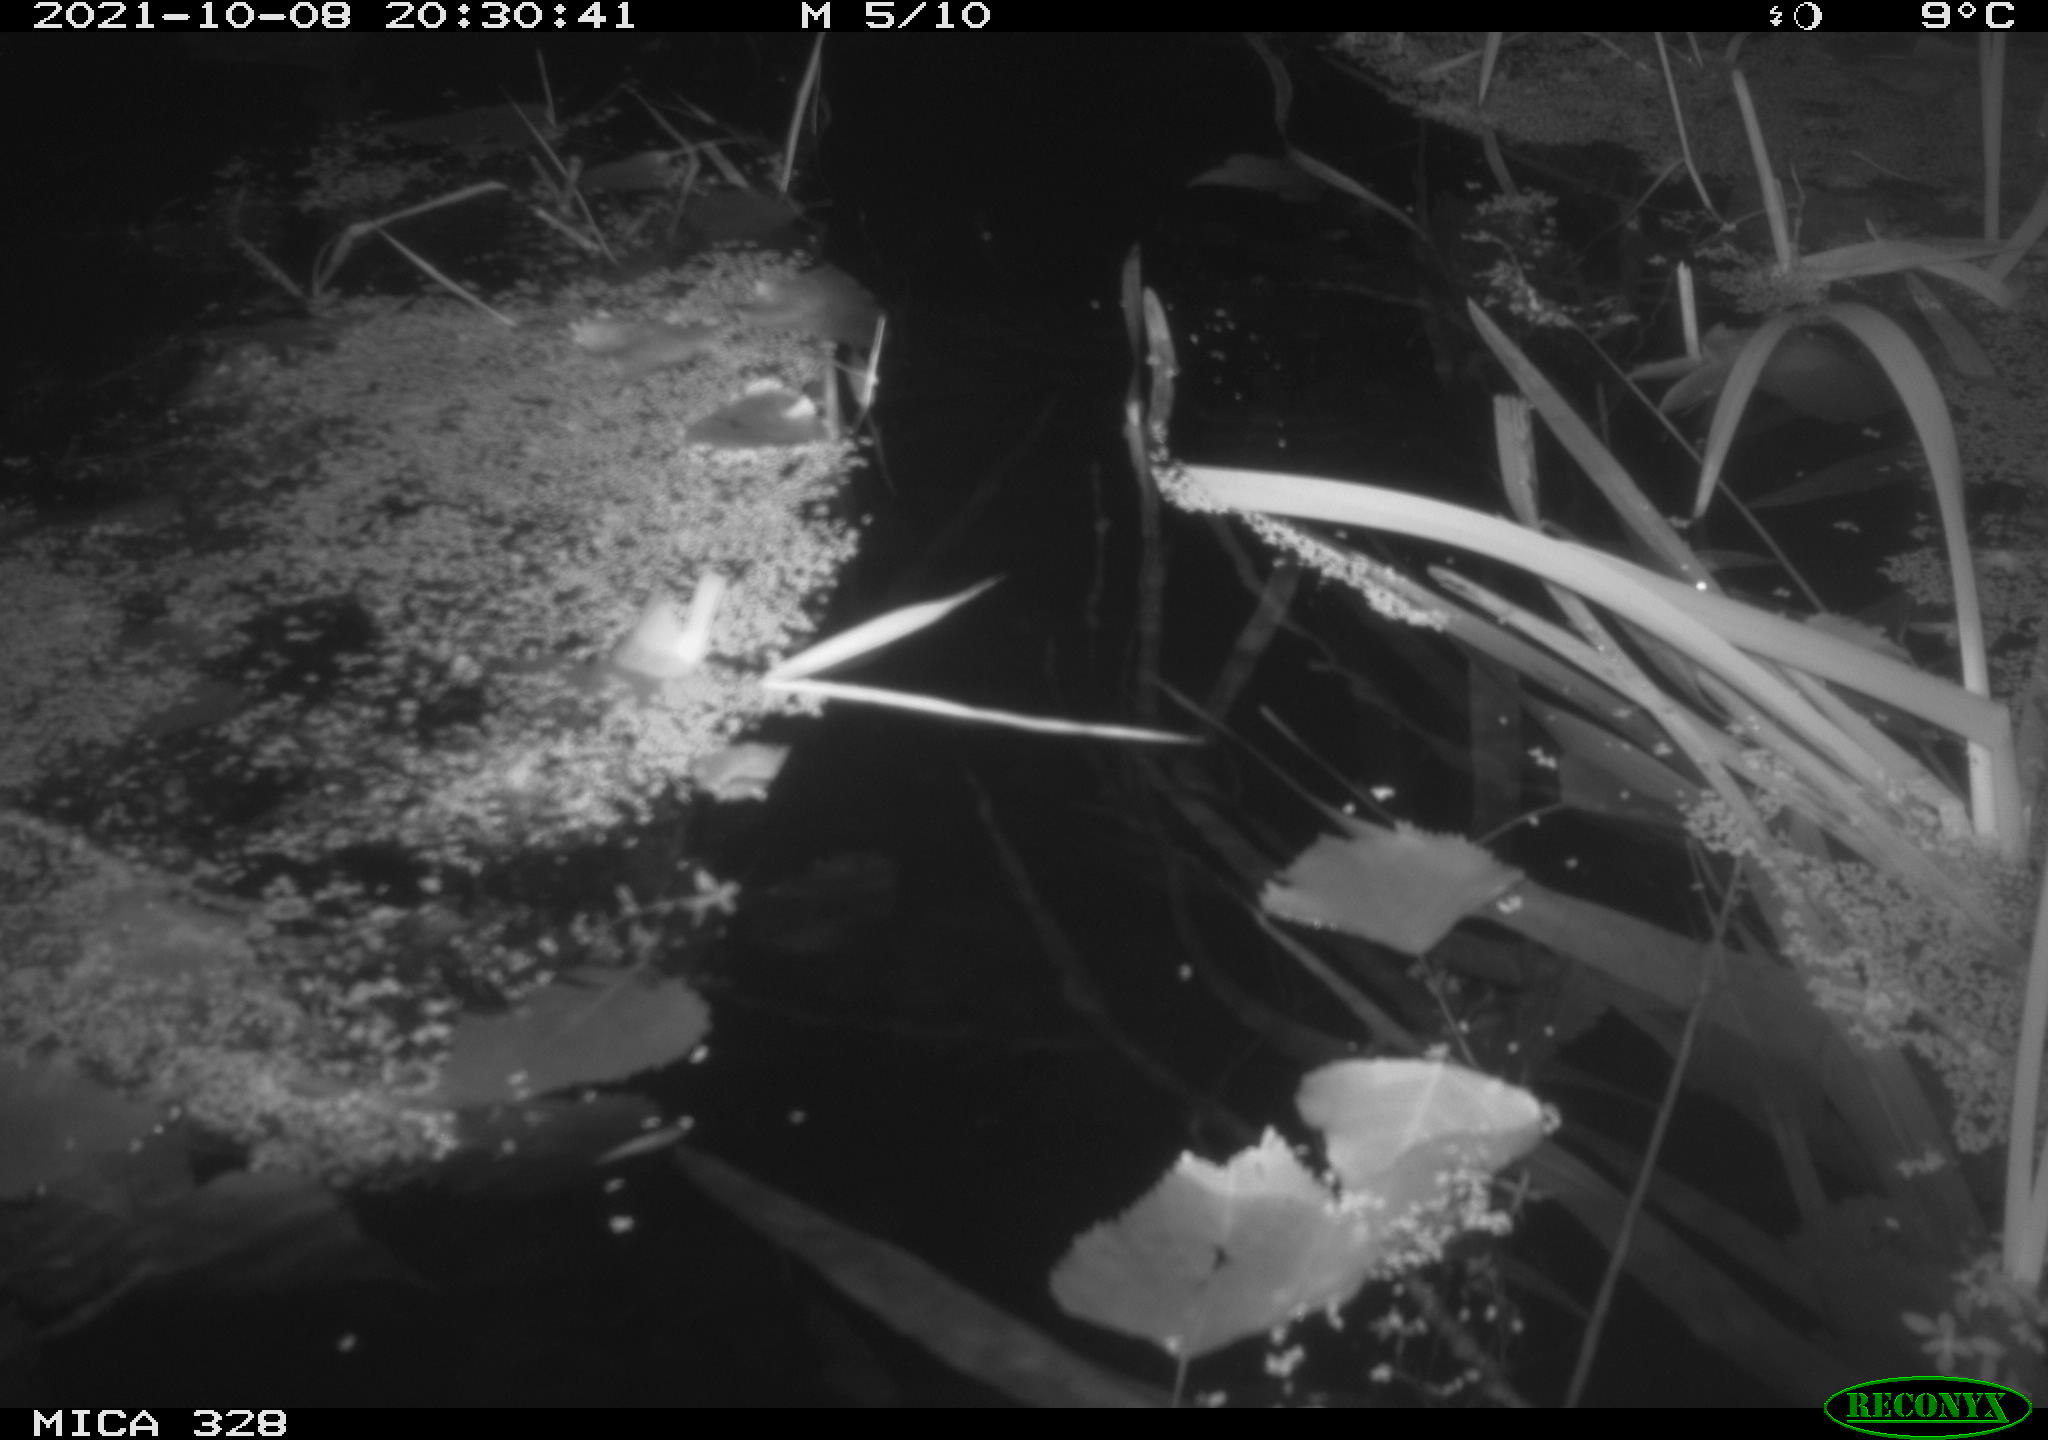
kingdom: Animalia
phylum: Chordata
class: Mammalia
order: Rodentia
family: Cricetidae
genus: Ondatra
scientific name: Ondatra zibethicus
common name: Muskrat
